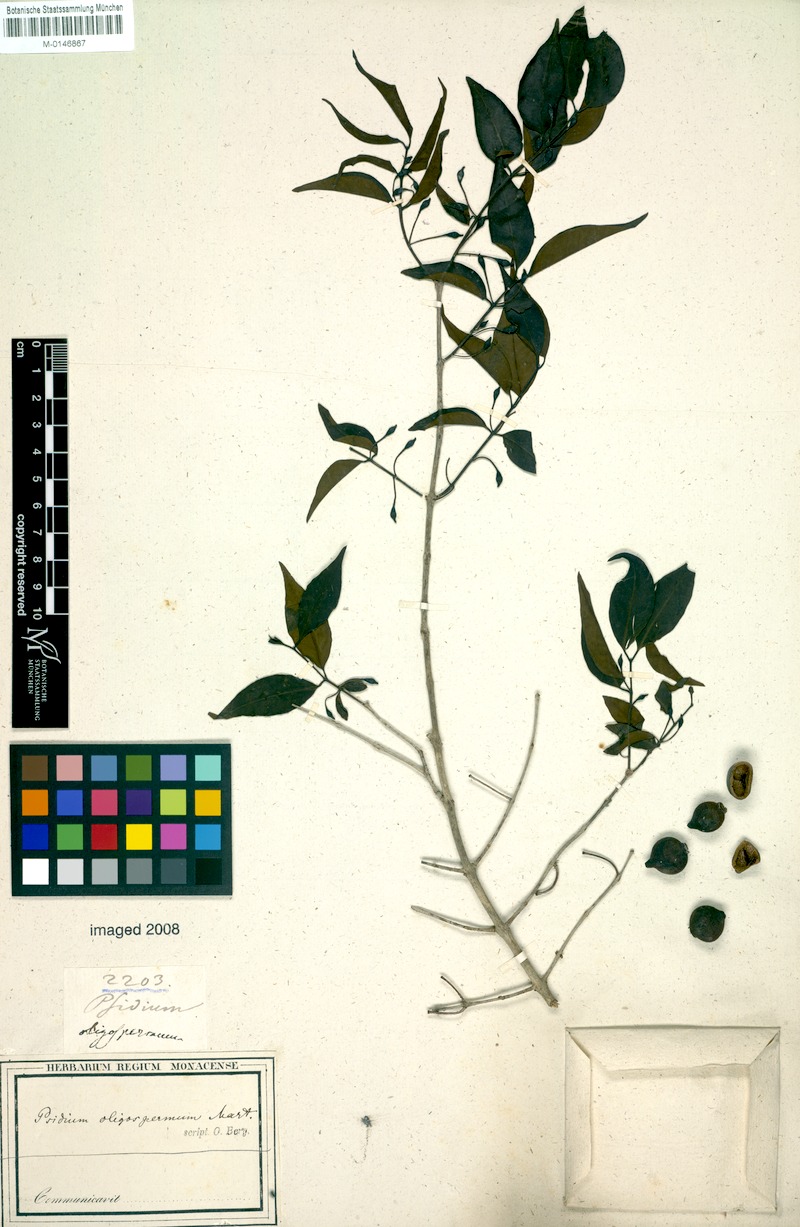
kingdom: Plantae
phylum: Tracheophyta
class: Magnoliopsida
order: Myrtales
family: Myrtaceae
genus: Psidium
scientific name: Psidium oligospermum
